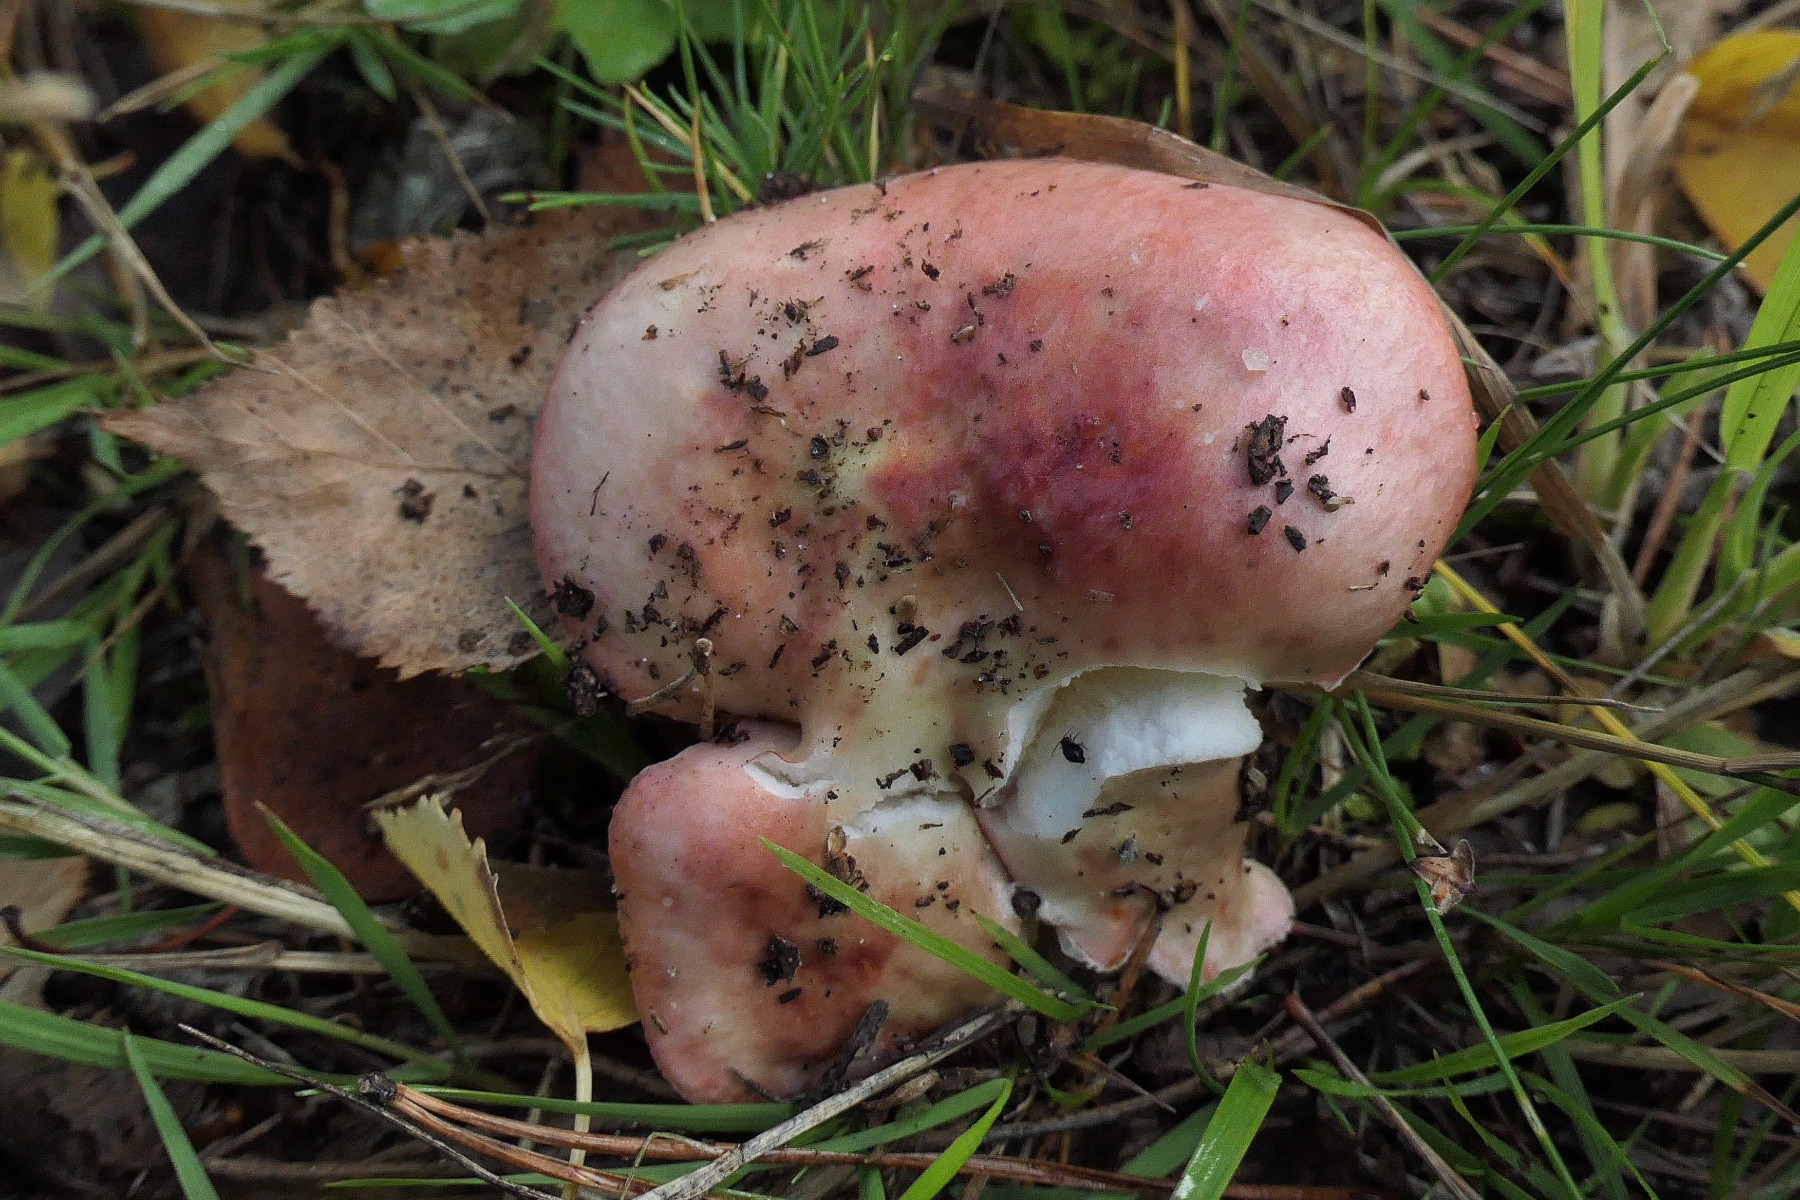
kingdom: Fungi
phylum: Basidiomycota
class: Agaricomycetes
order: Russulales
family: Russulaceae
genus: Russula
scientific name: Russula depallens
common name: falmende skørhat
